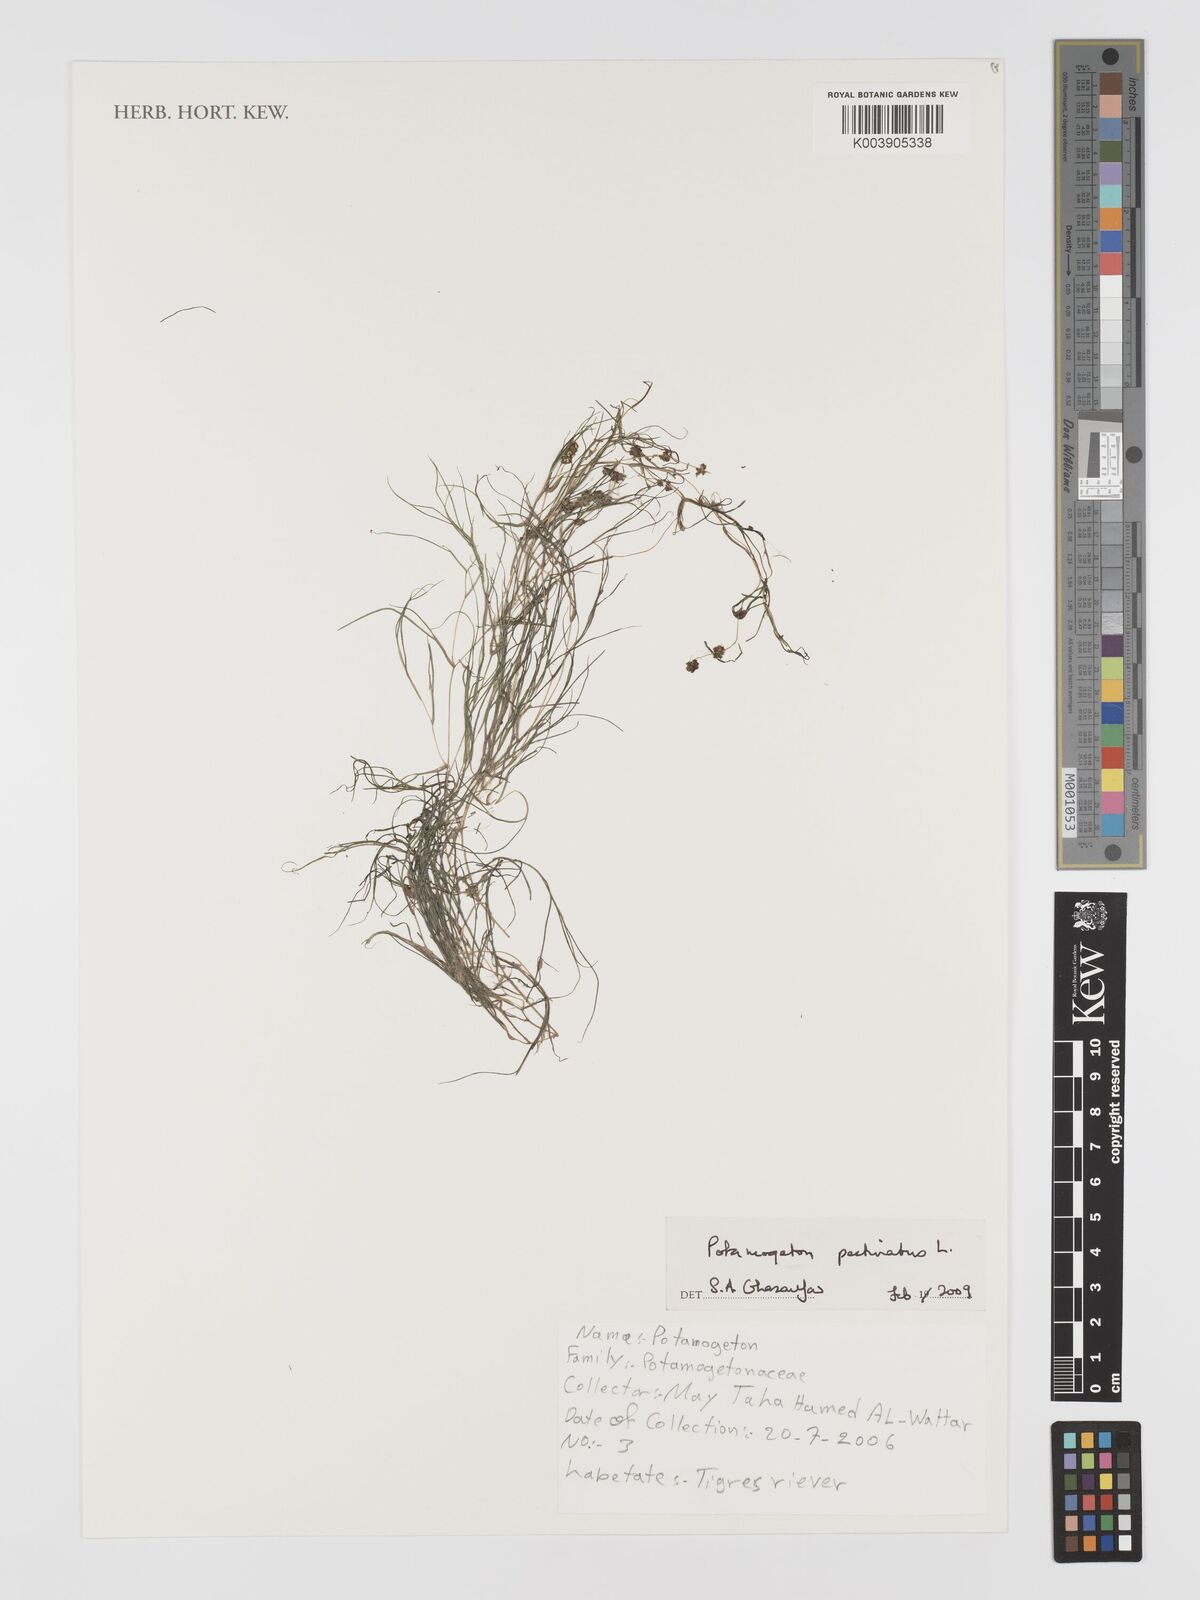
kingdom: Plantae
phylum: Tracheophyta
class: Liliopsida
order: Alismatales
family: Potamogetonaceae
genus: Stuckenia
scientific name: Stuckenia pectinata
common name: Sago pondweed
